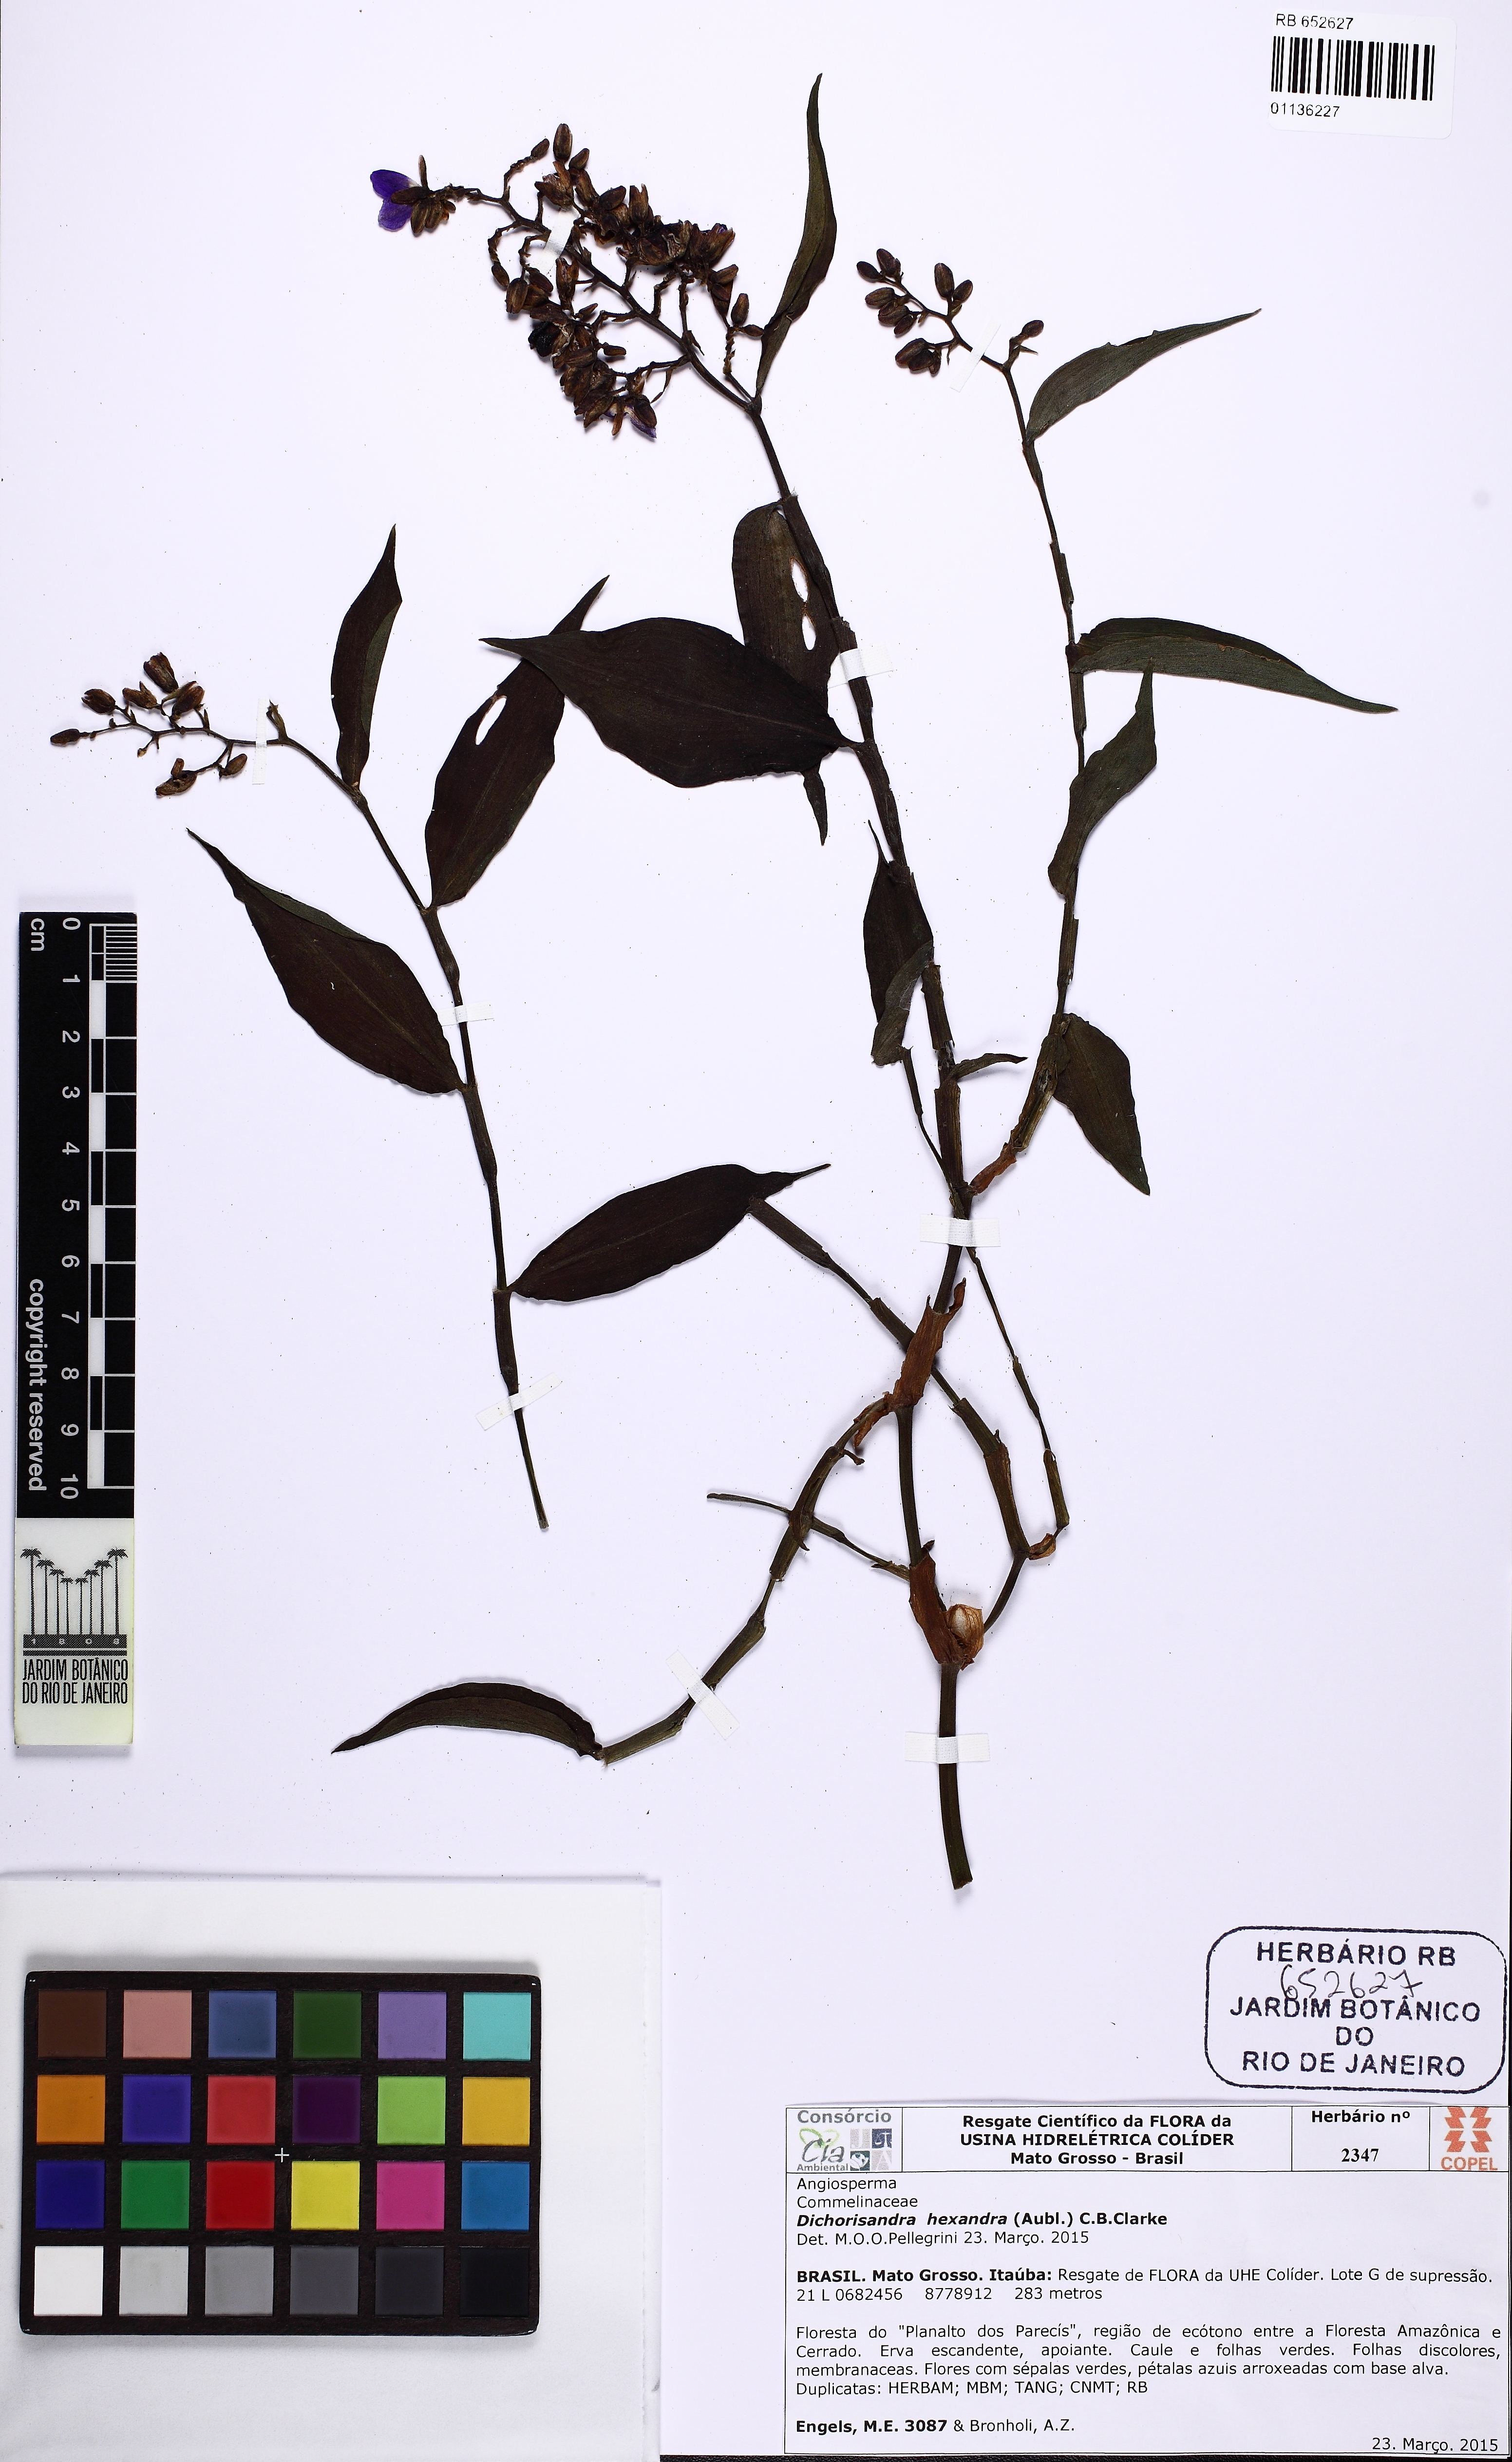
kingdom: Plantae
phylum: Tracheophyta
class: Liliopsida
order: Commelinales
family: Commelinaceae
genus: Dichorisandra
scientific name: Dichorisandra hexandra
